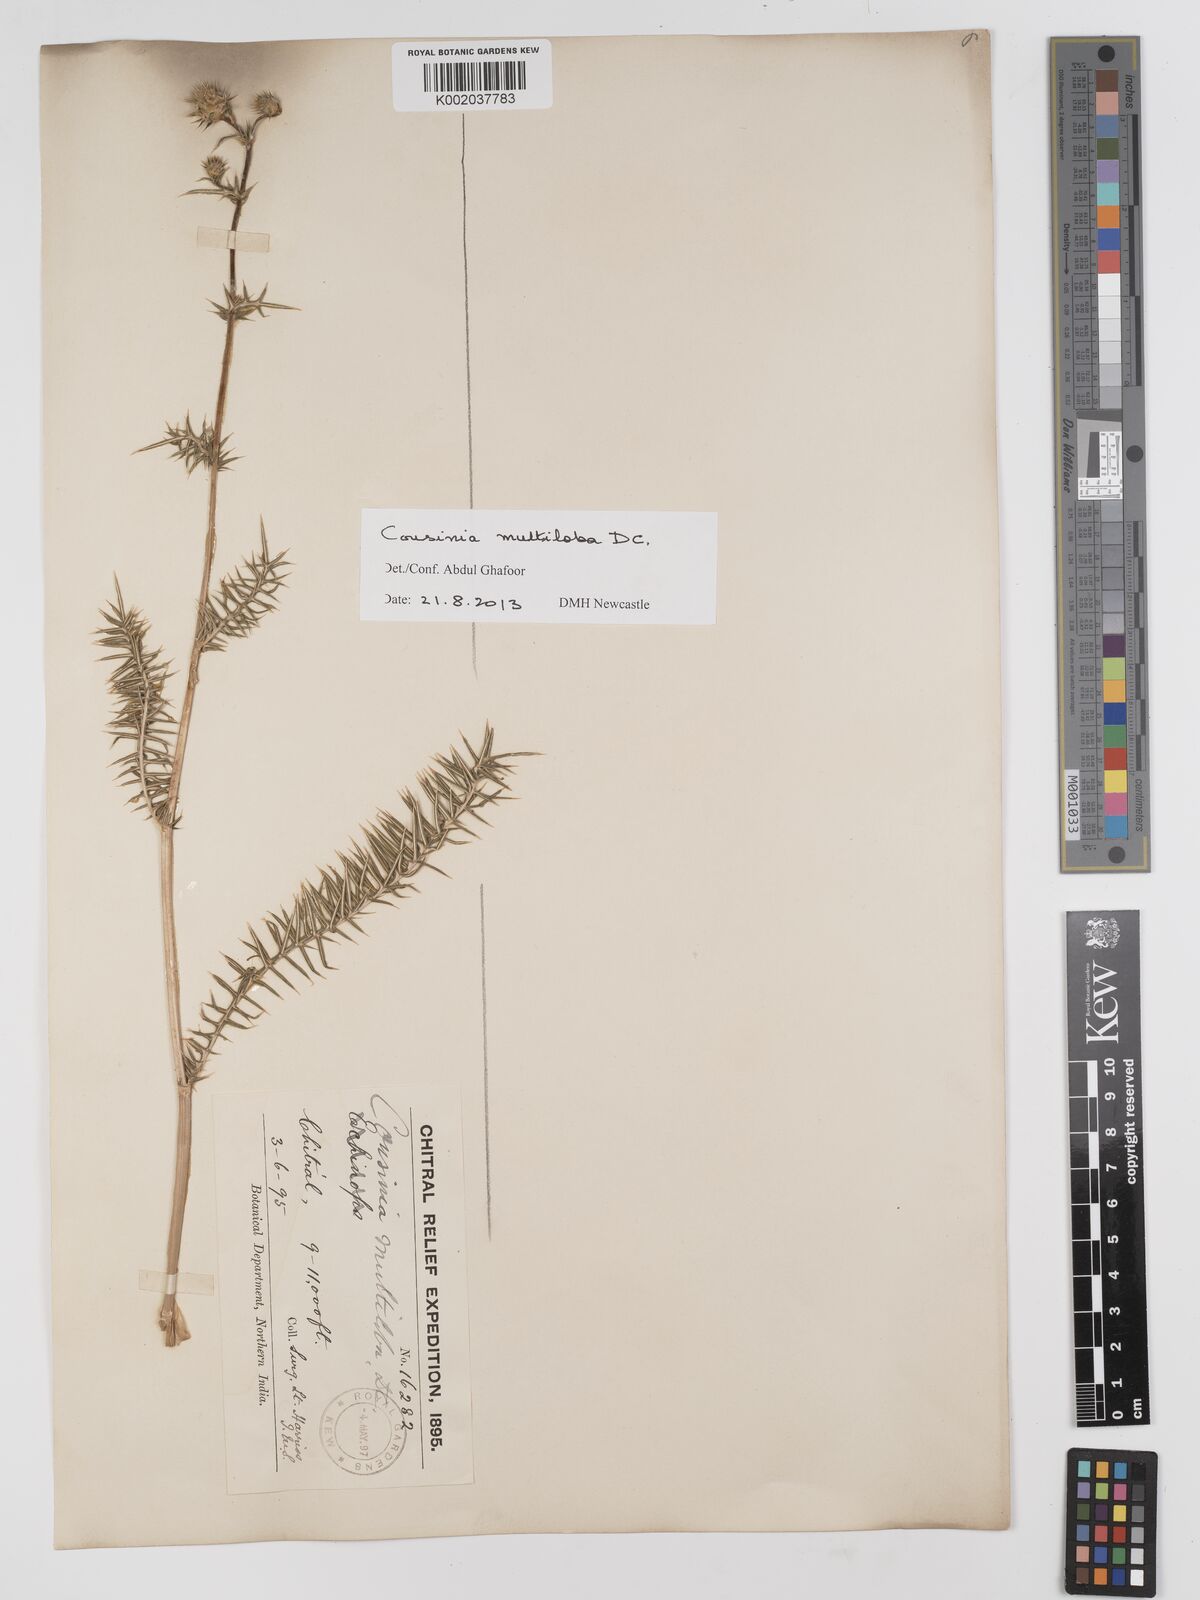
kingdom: Plantae
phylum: Tracheophyta
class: Magnoliopsida
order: Asterales
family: Asteraceae
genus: Cousinia
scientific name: Cousinia multiloba
